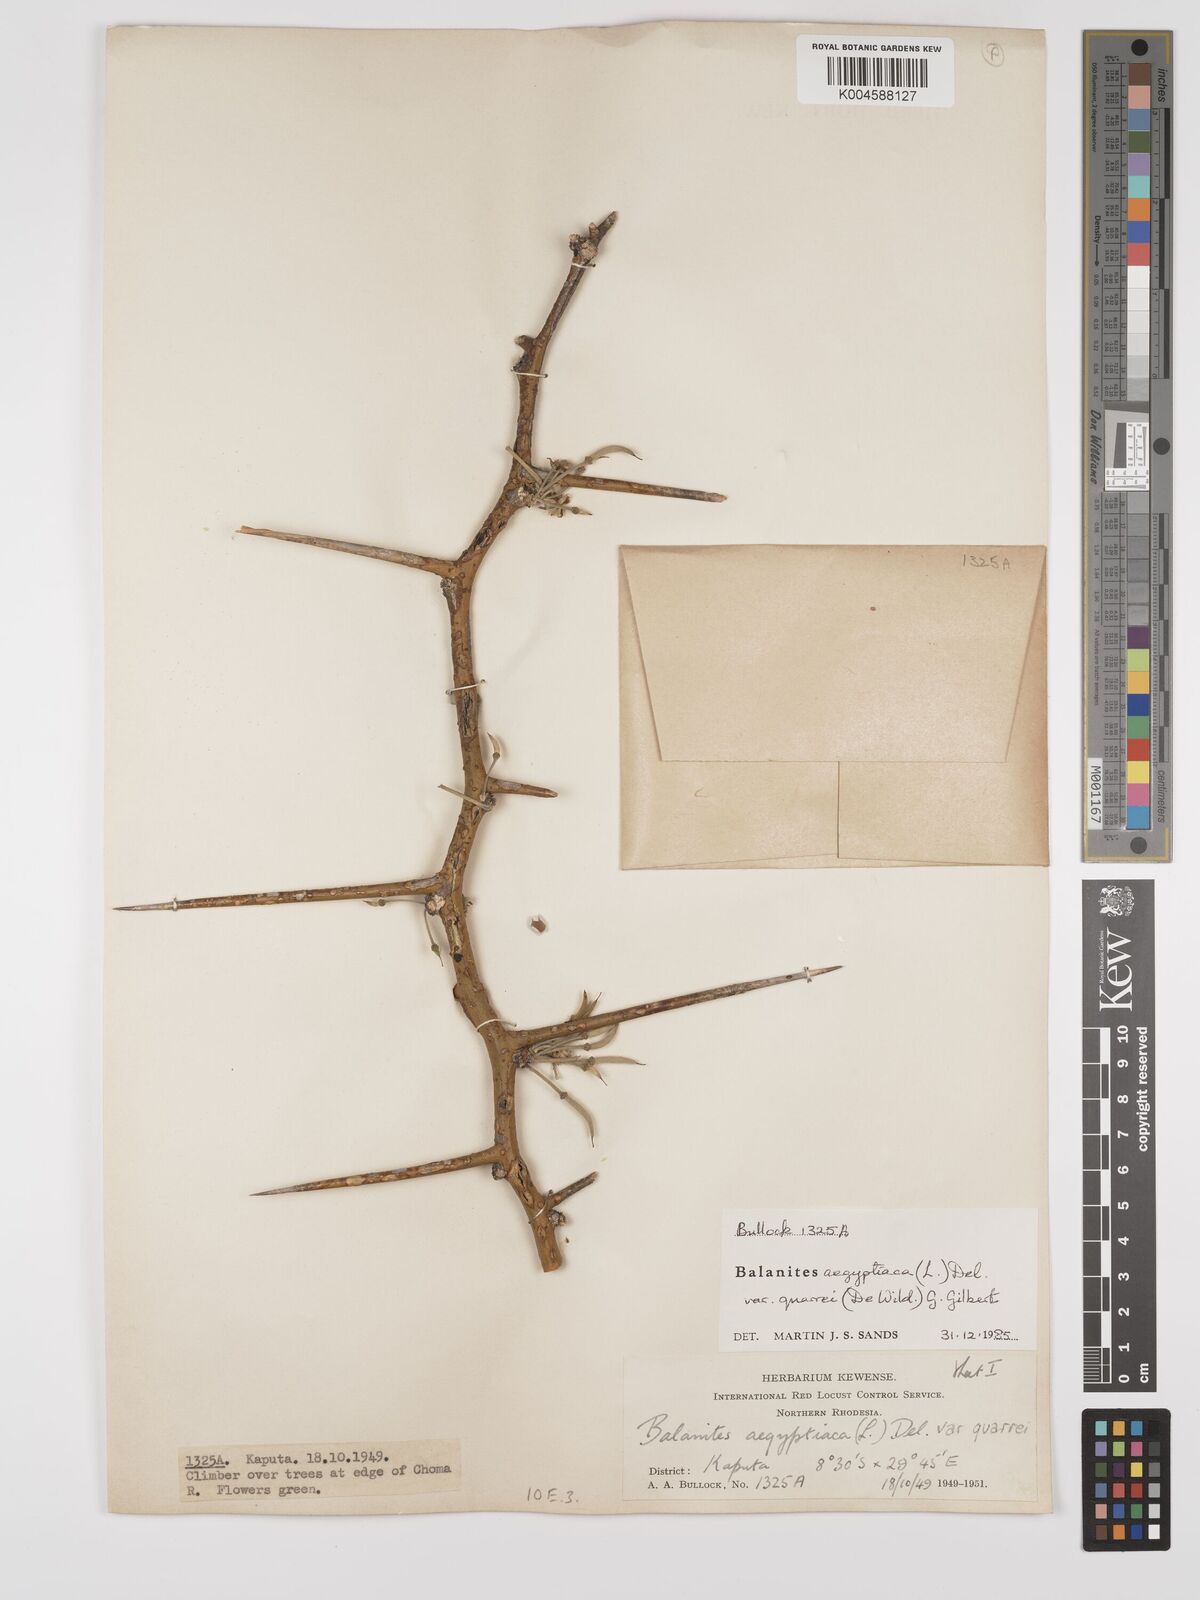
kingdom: Plantae
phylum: Tracheophyta
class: Magnoliopsida
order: Zygophyllales
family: Zygophyllaceae
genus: Balanites
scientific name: Balanites aegyptiaca
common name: Balanites
